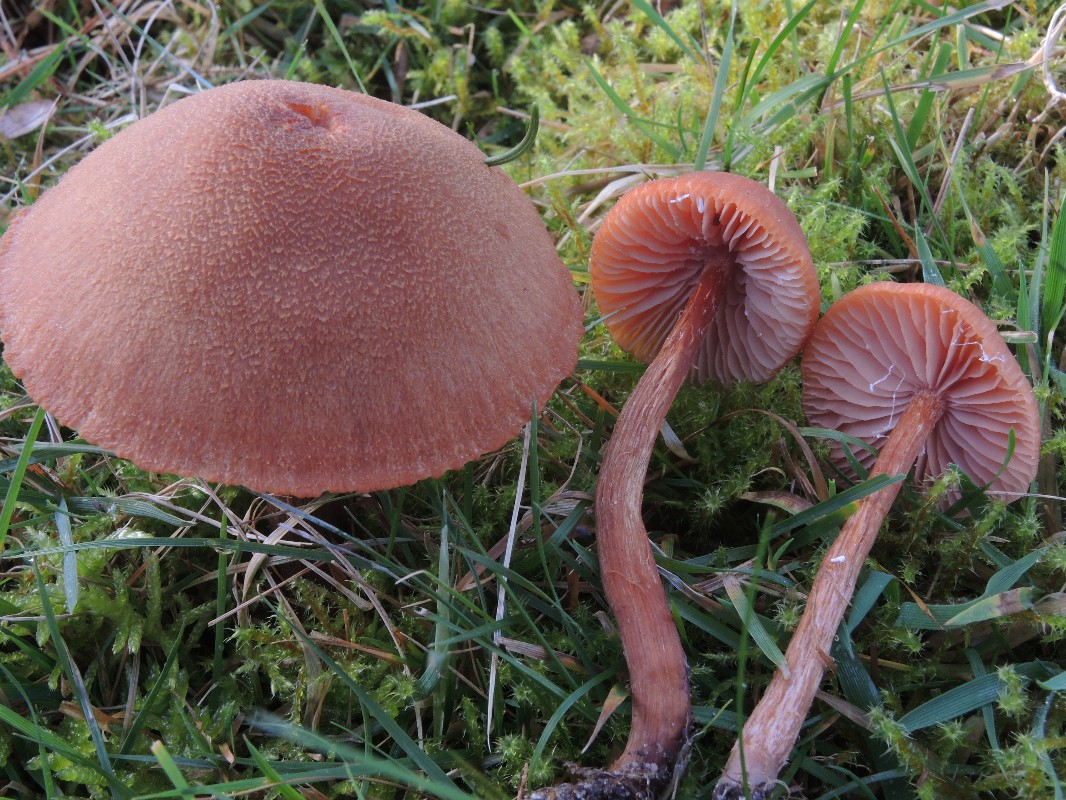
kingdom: Fungi
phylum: Basidiomycota
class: Agaricomycetes
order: Agaricales
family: Hydnangiaceae
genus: Laccaria
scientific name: Laccaria bicolor
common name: tvefarvet ametysthat
